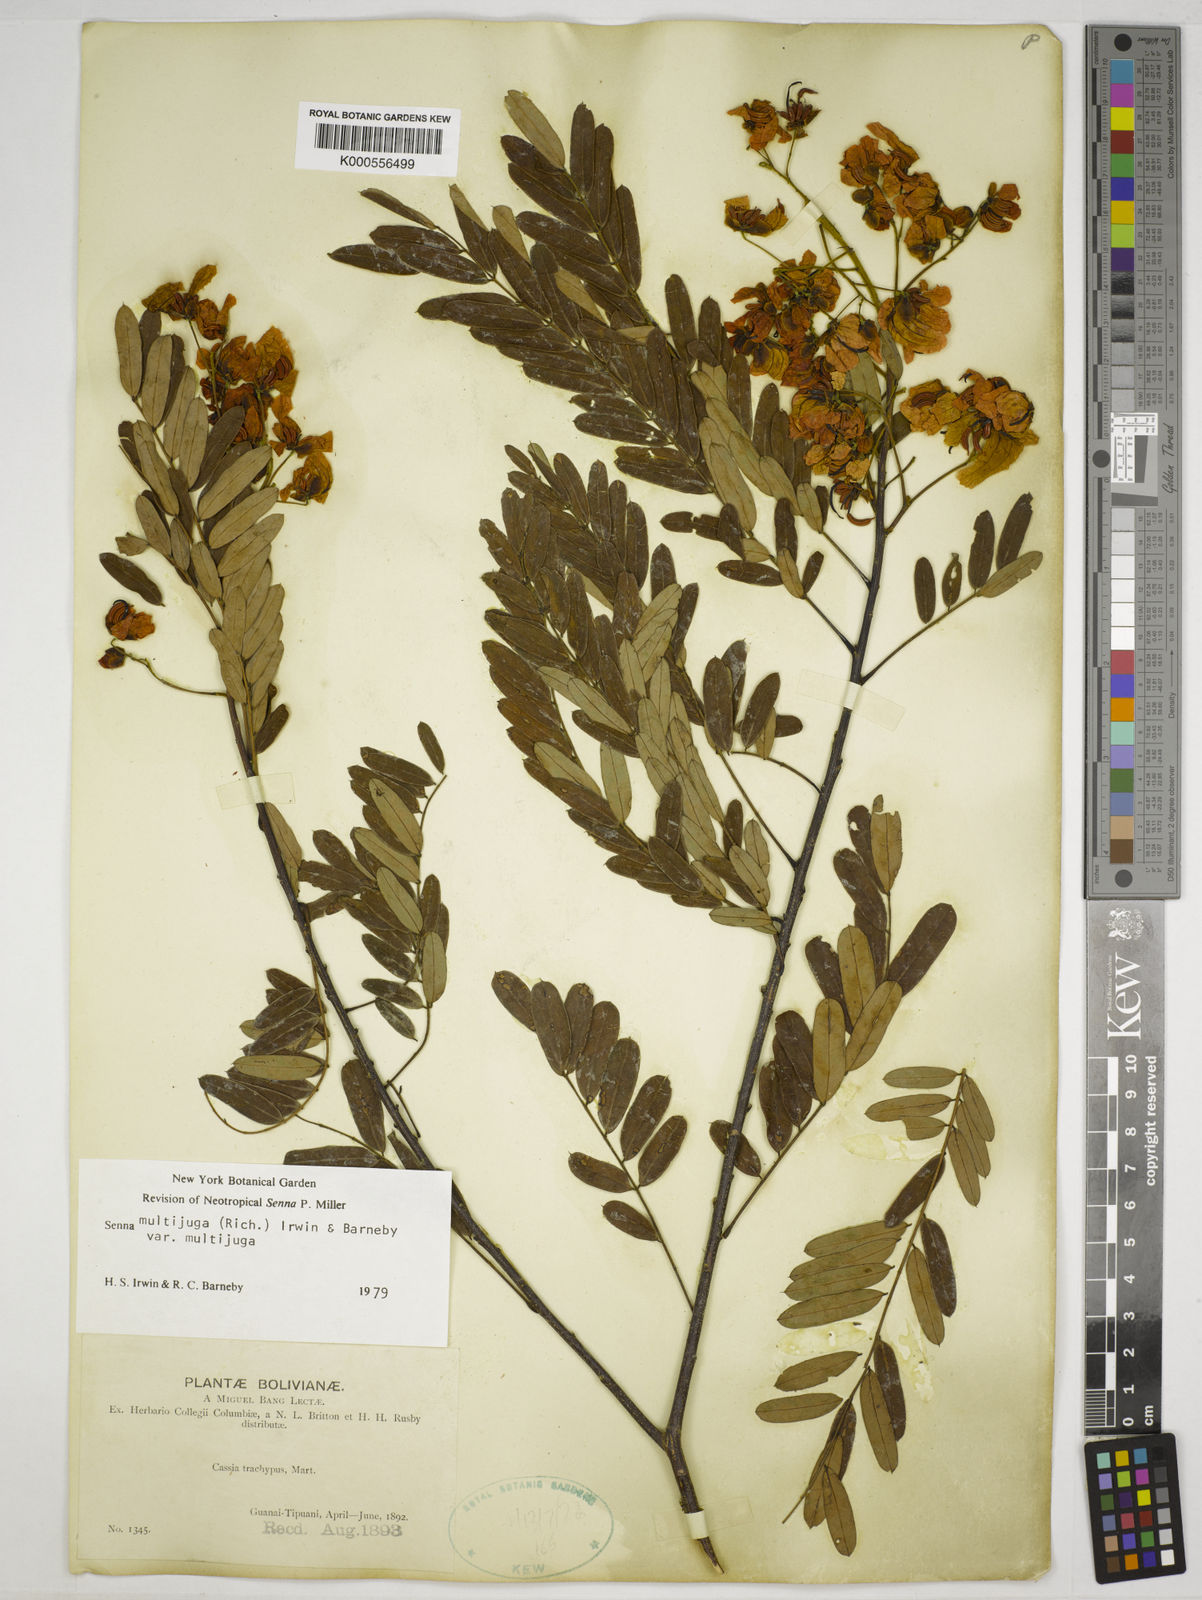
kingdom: Plantae
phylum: Tracheophyta
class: Magnoliopsida
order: Fabales
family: Fabaceae
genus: Senna
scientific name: Senna multijuga
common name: False sicklepod
